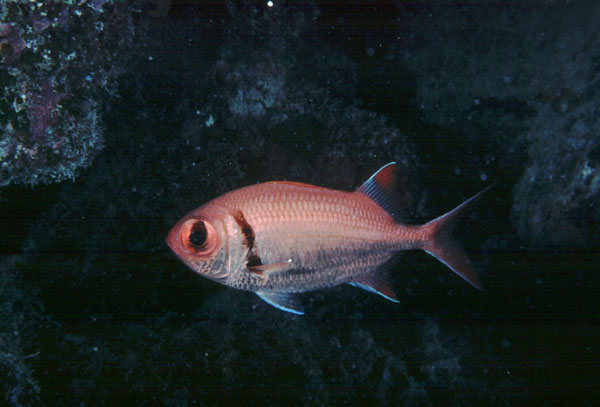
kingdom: Animalia
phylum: Chordata
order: Beryciformes
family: Holocentridae
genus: Myripristis
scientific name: Myripristis kuntee
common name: Epaulette soldierfish
